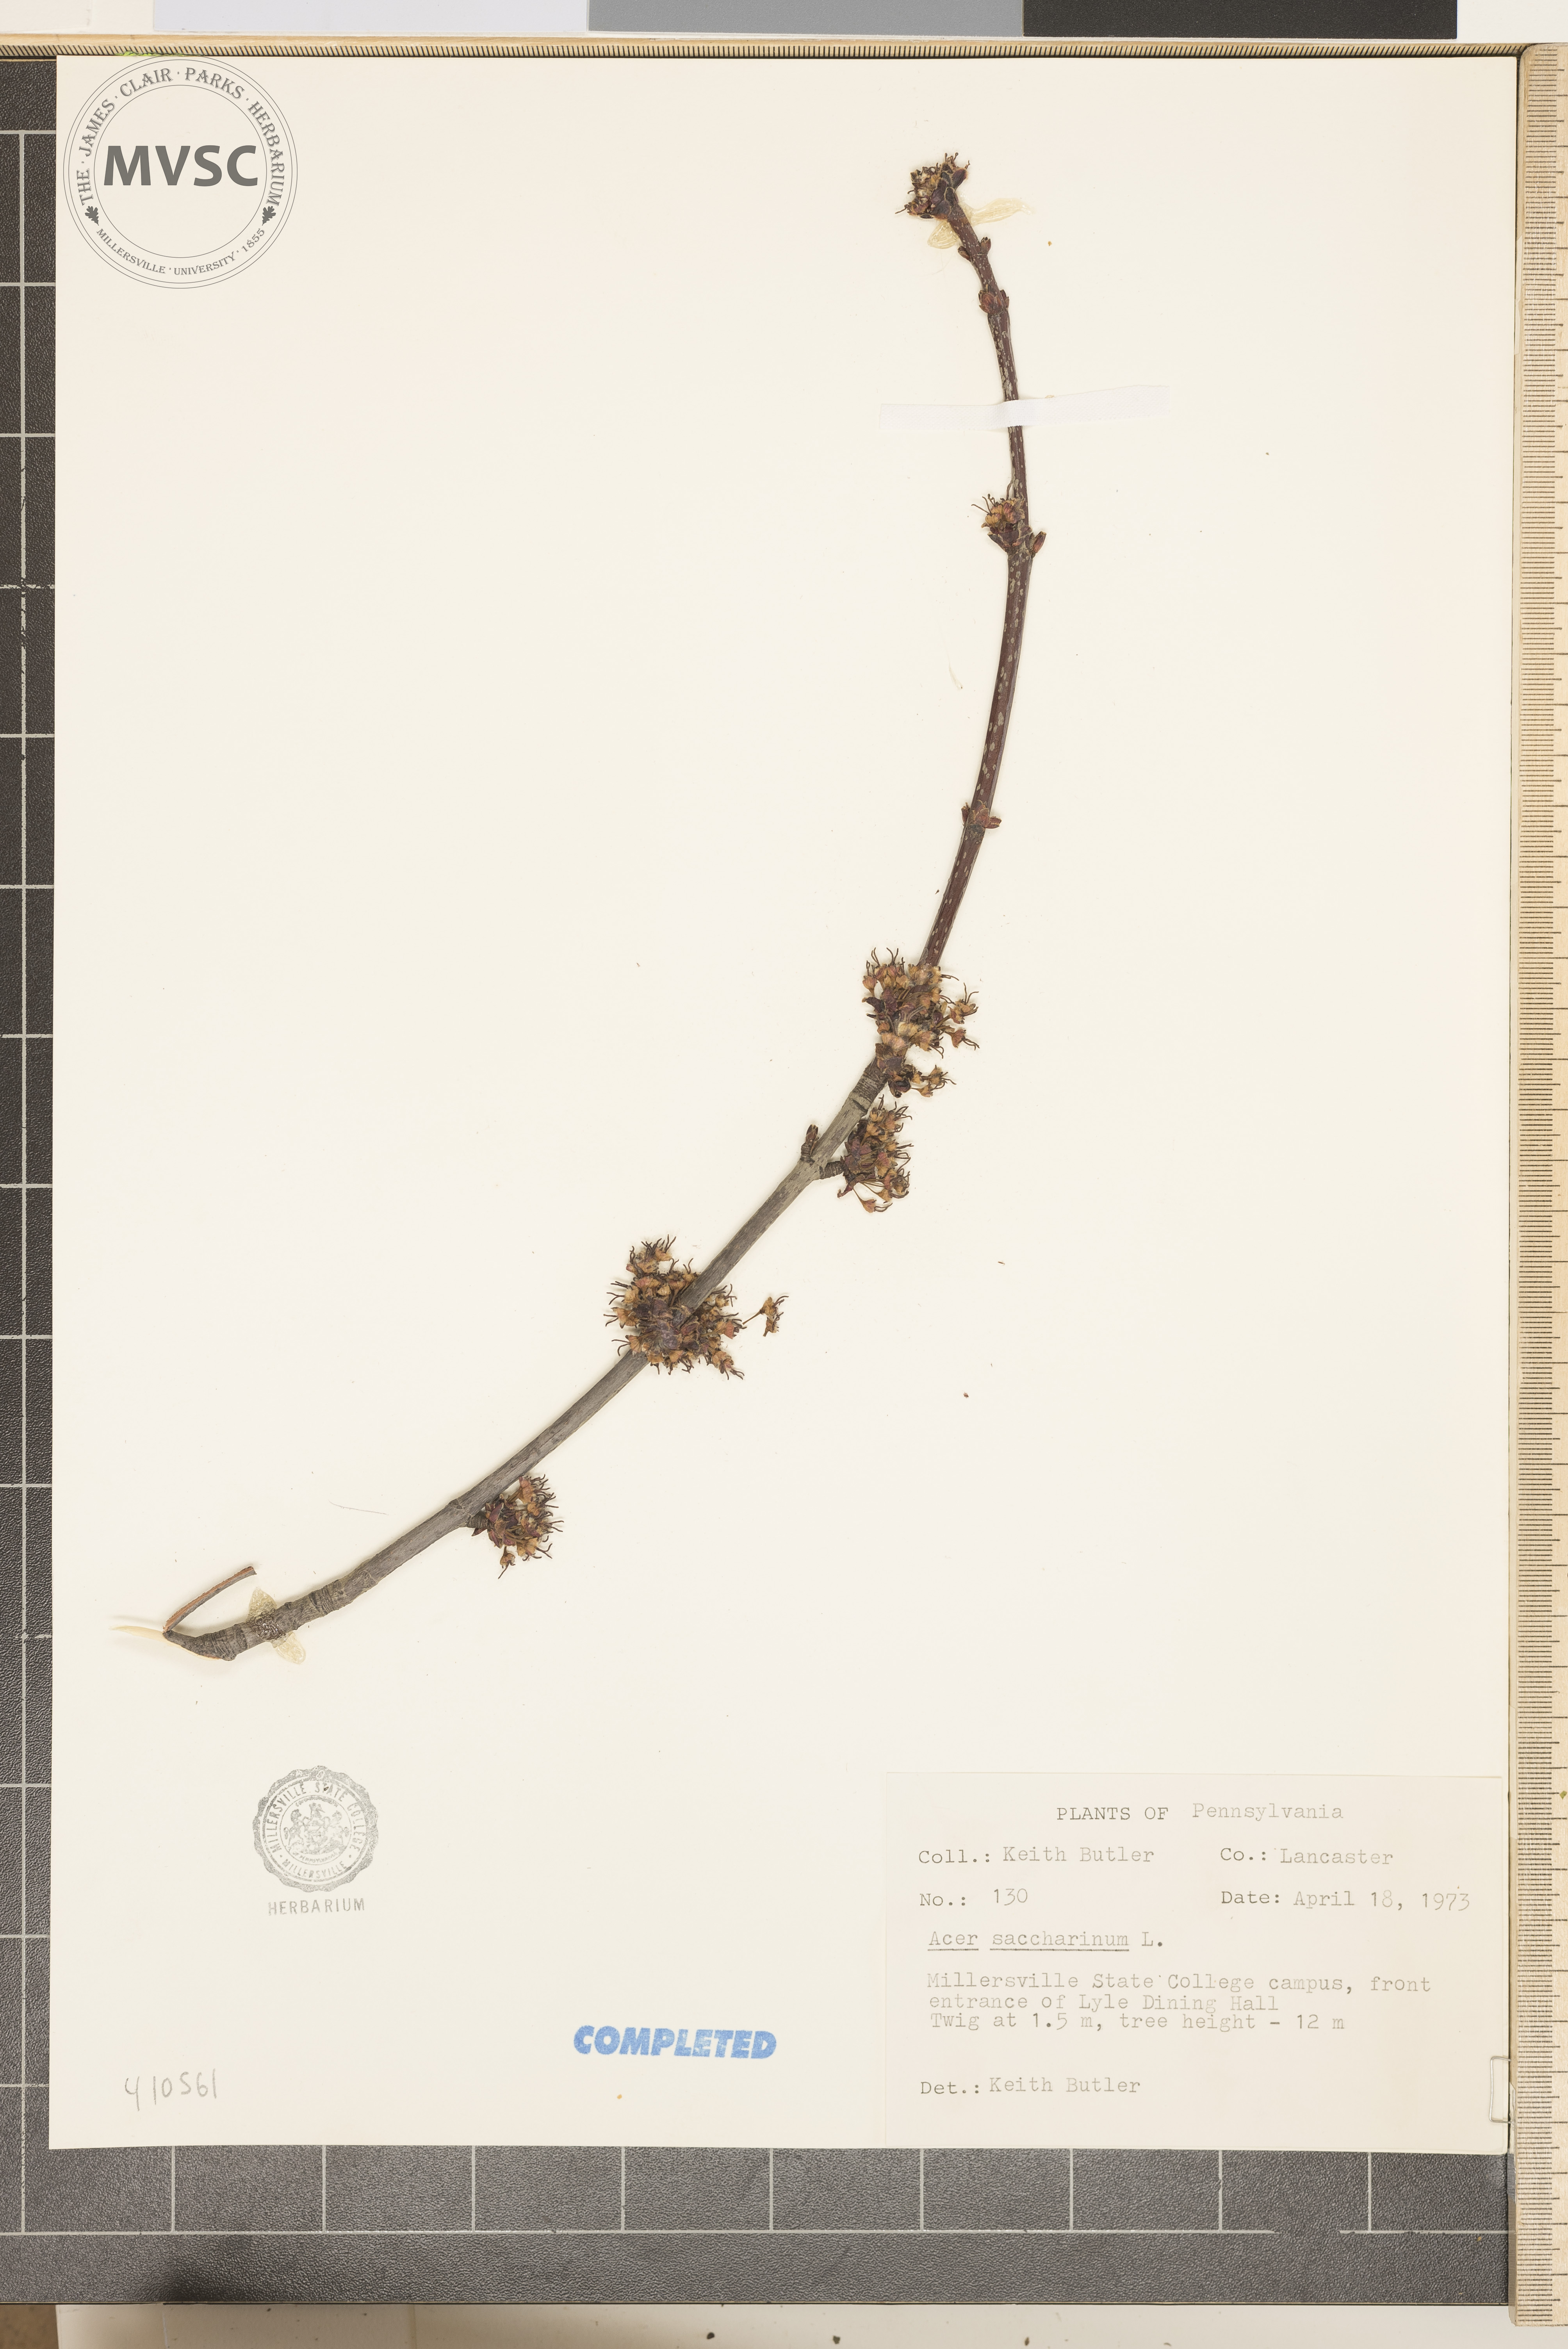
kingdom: Plantae
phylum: Tracheophyta
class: Magnoliopsida
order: Sapindales
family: Sapindaceae
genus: Acer
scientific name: Acer saccharinum
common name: Silver Maple
